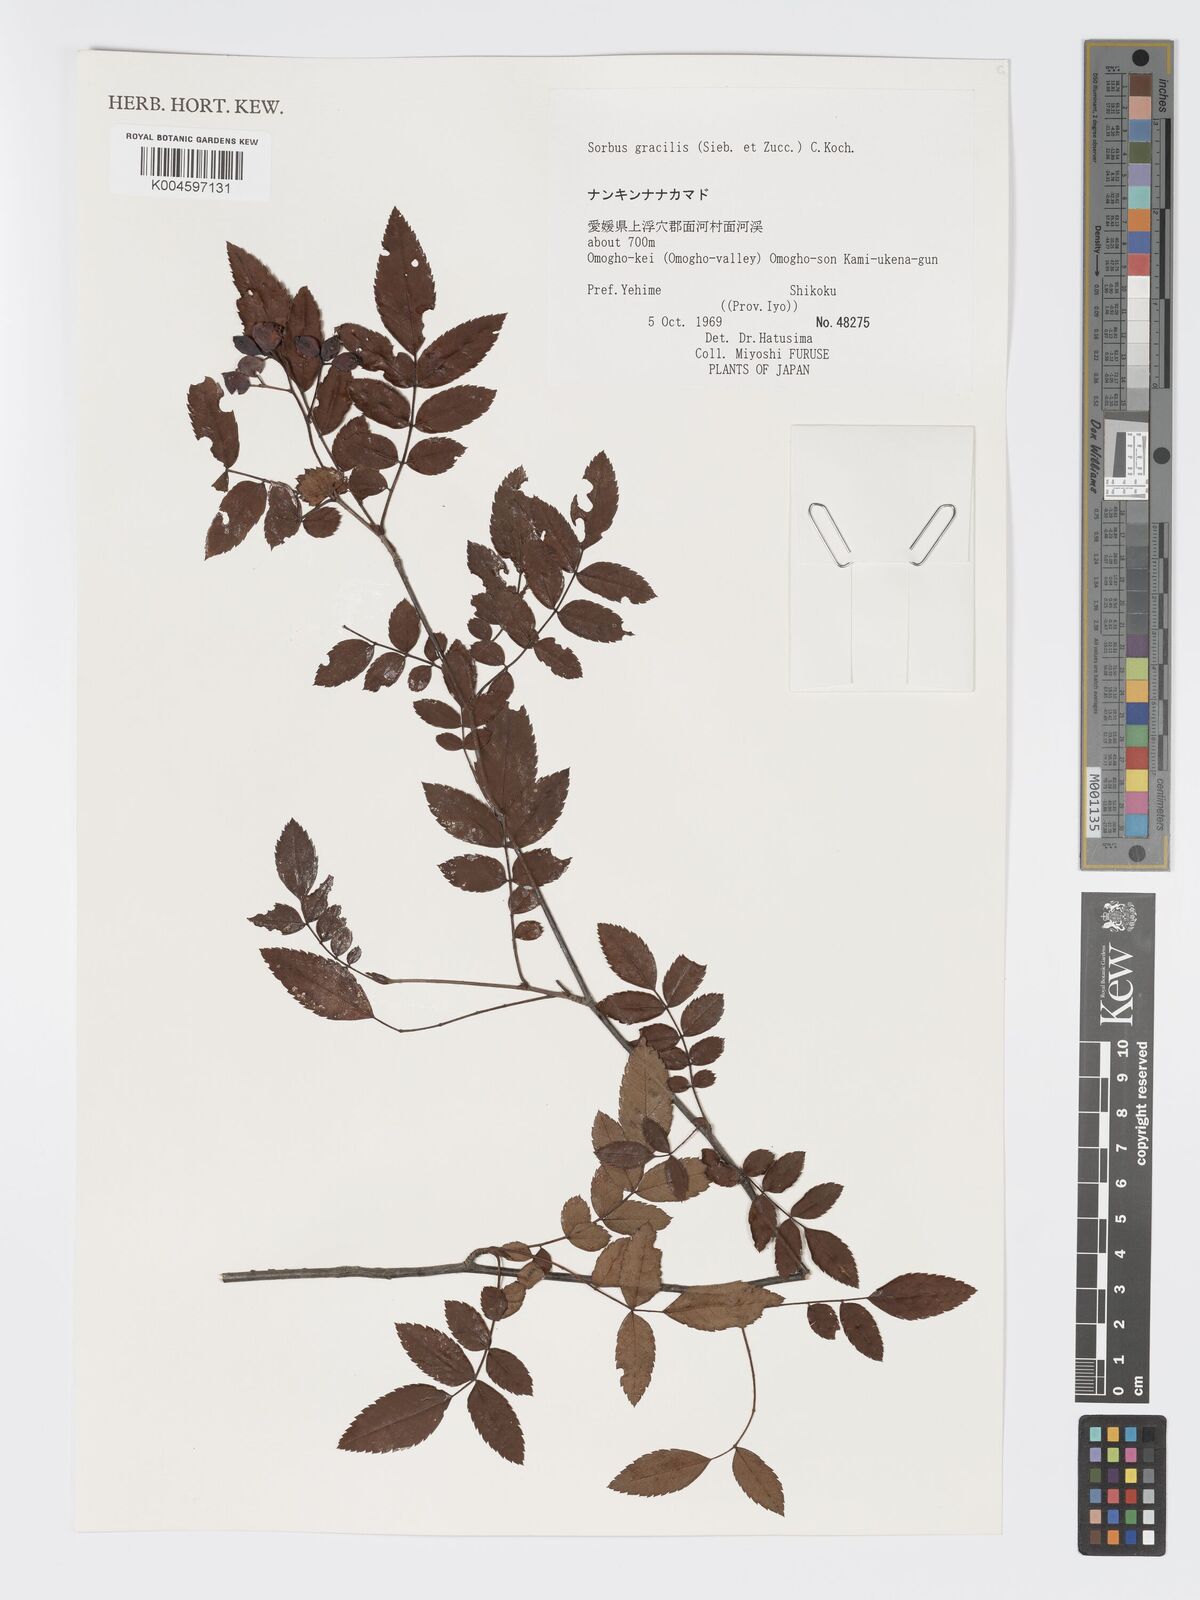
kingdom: Plantae
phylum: Tracheophyta
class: Magnoliopsida
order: Rosales
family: Rosaceae
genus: Sorbus
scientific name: Sorbus gracilis
